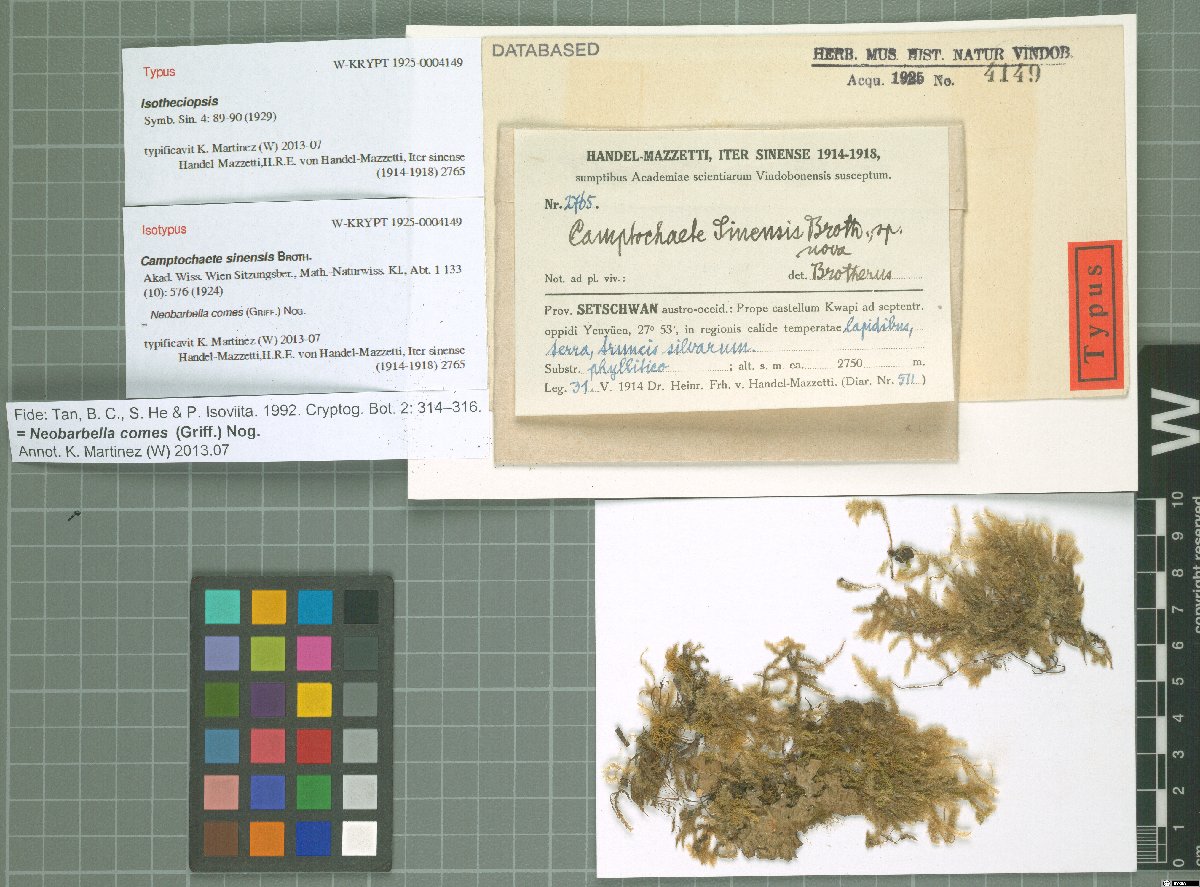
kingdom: Plantae
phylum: Bryophyta
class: Bryopsida
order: Hypnales
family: Lembophyllaceae
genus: Neobarbella
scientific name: Neobarbella comes
